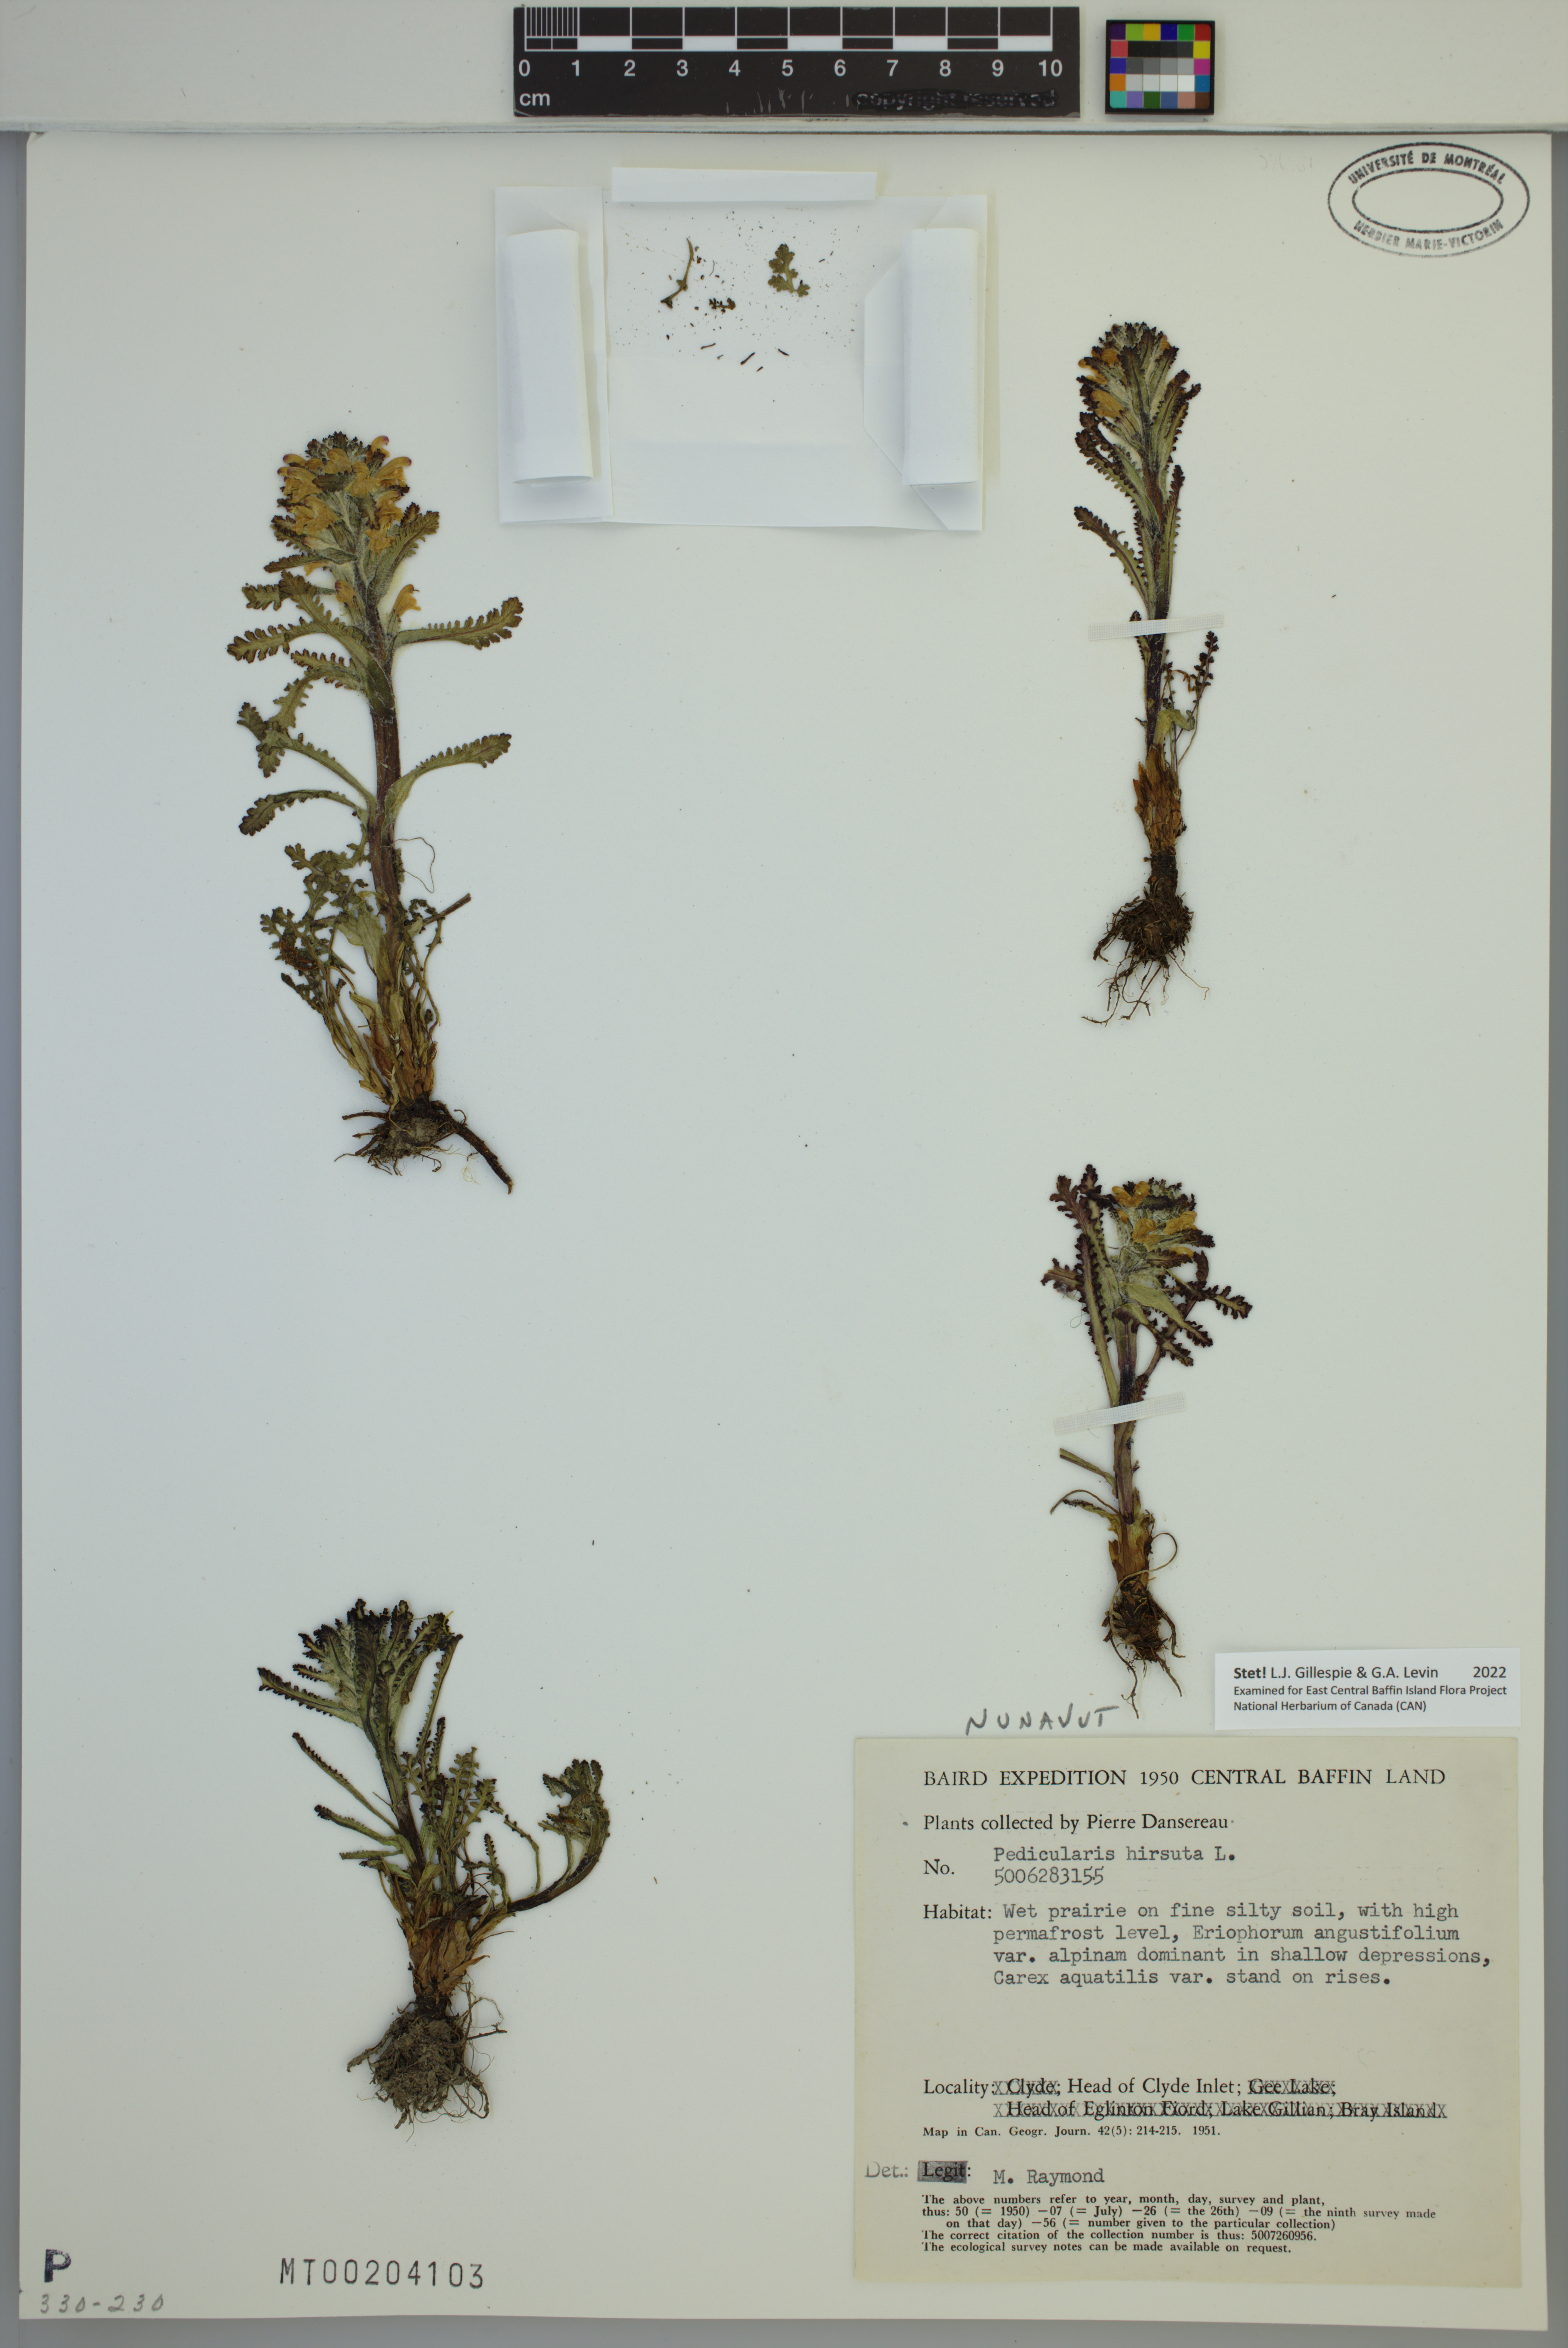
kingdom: Plantae
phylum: Tracheophyta
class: Magnoliopsida
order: Lamiales
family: Orobanchaceae
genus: Pedicularis
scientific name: Pedicularis hirsuta
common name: Hairy lousewort
